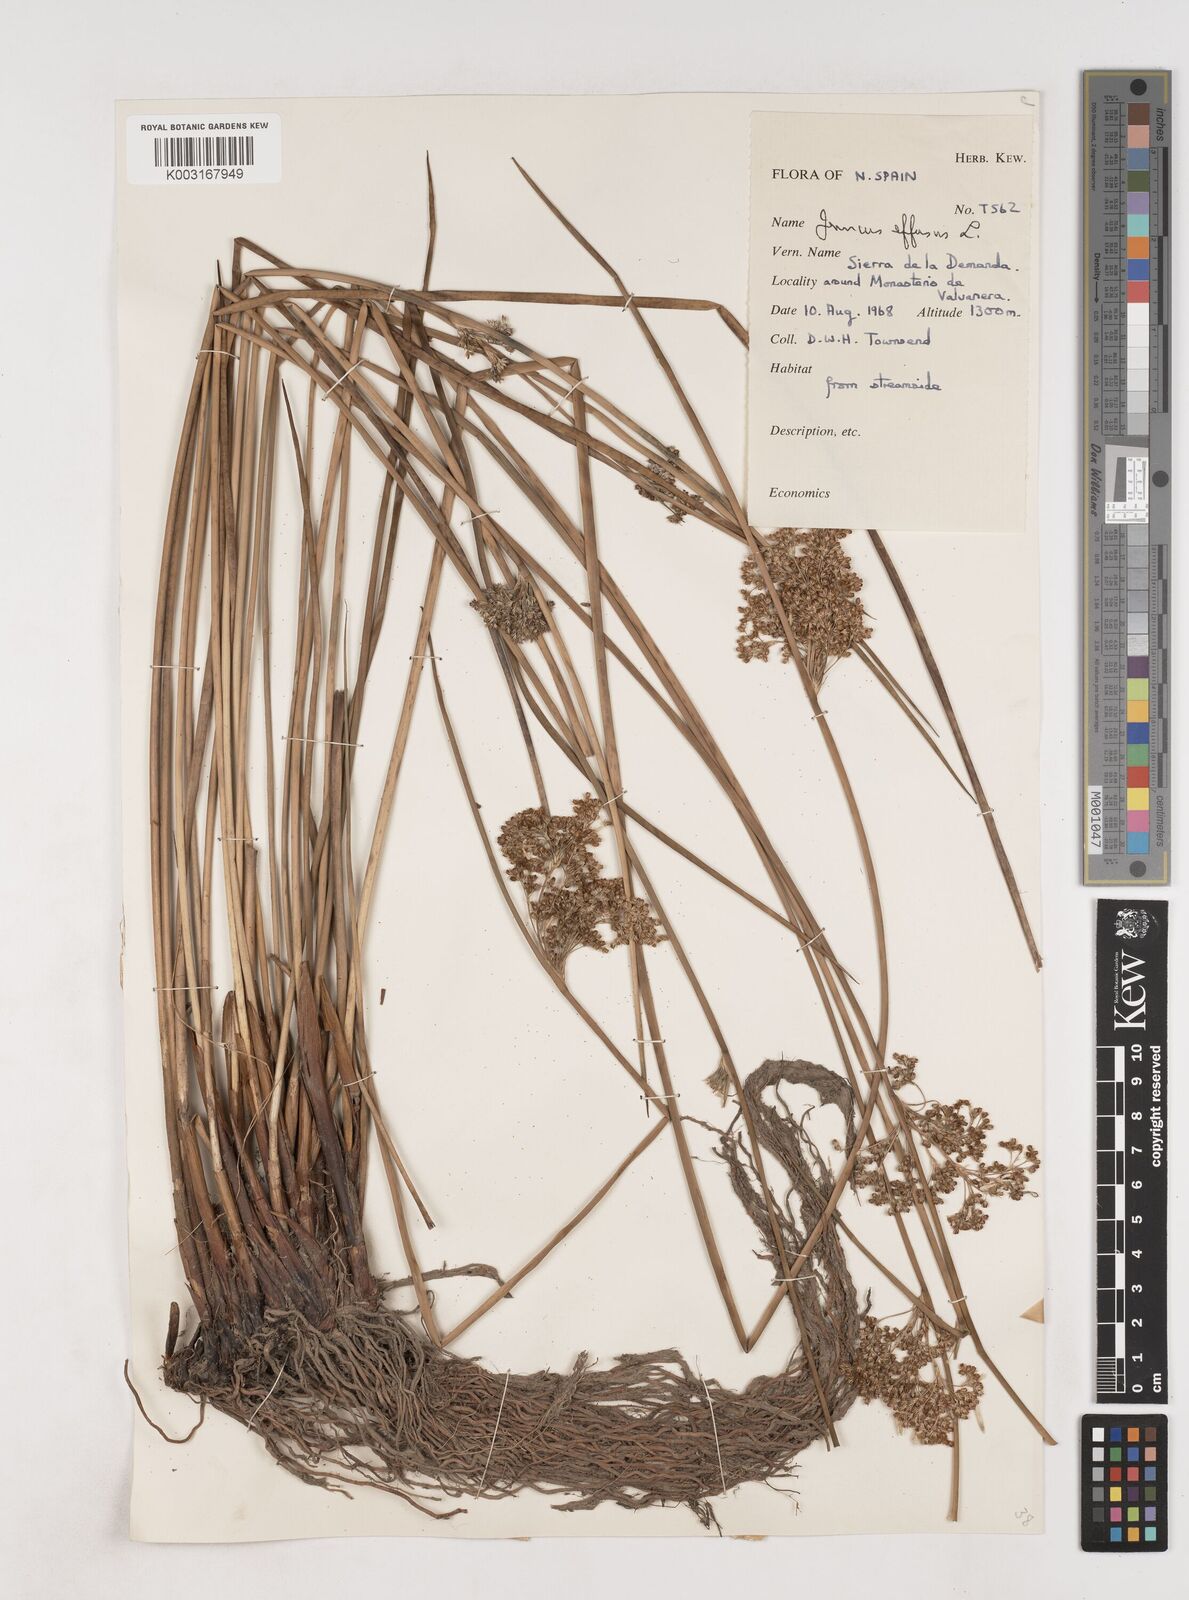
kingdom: Plantae
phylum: Tracheophyta
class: Liliopsida
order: Poales
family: Juncaceae
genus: Juncus
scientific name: Juncus effusus
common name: Soft rush
